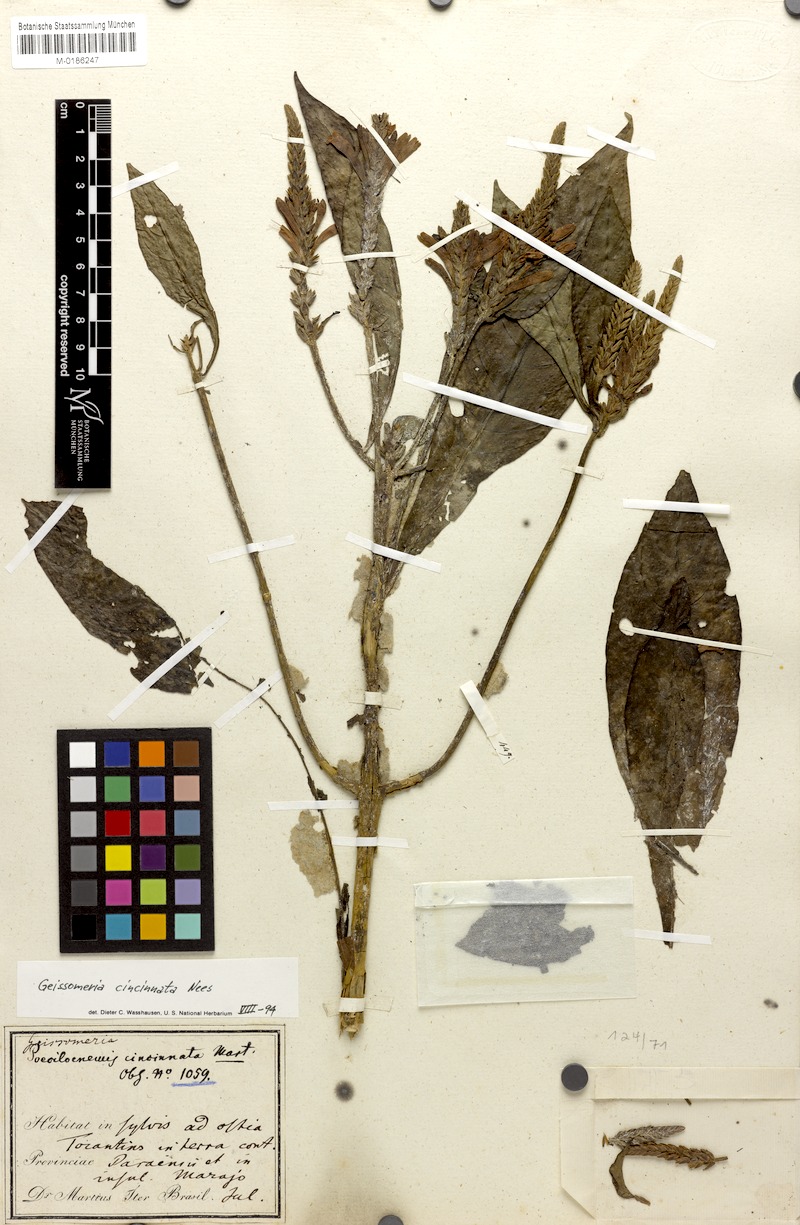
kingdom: Plantae
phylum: Tracheophyta
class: Magnoliopsida
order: Lamiales
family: Acanthaceae
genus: Aphelandra
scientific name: Aphelandra longiflora
